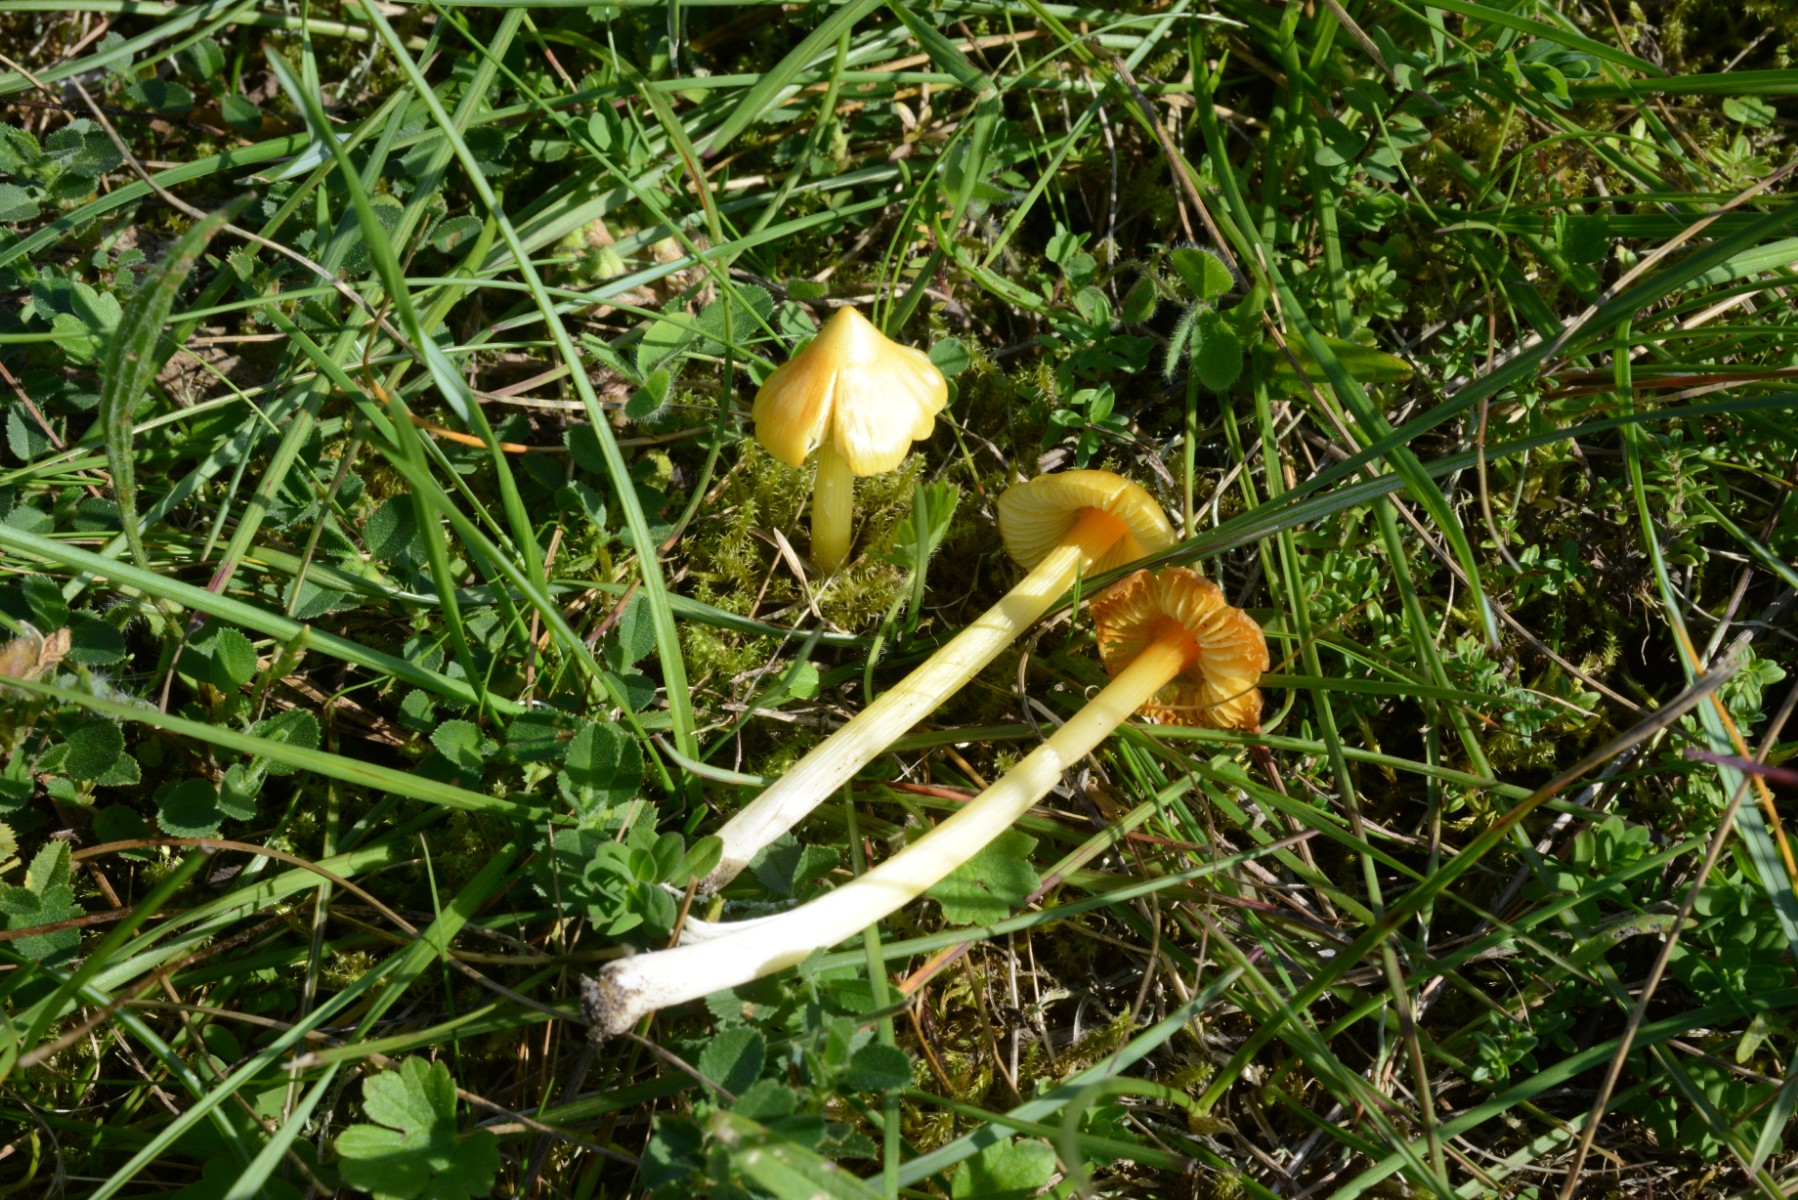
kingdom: Fungi
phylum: Basidiomycota
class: Agaricomycetes
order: Agaricales
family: Hygrophoraceae
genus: Hygrocybe
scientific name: Hygrocybe acutoconica
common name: spidspuklet vokshat
